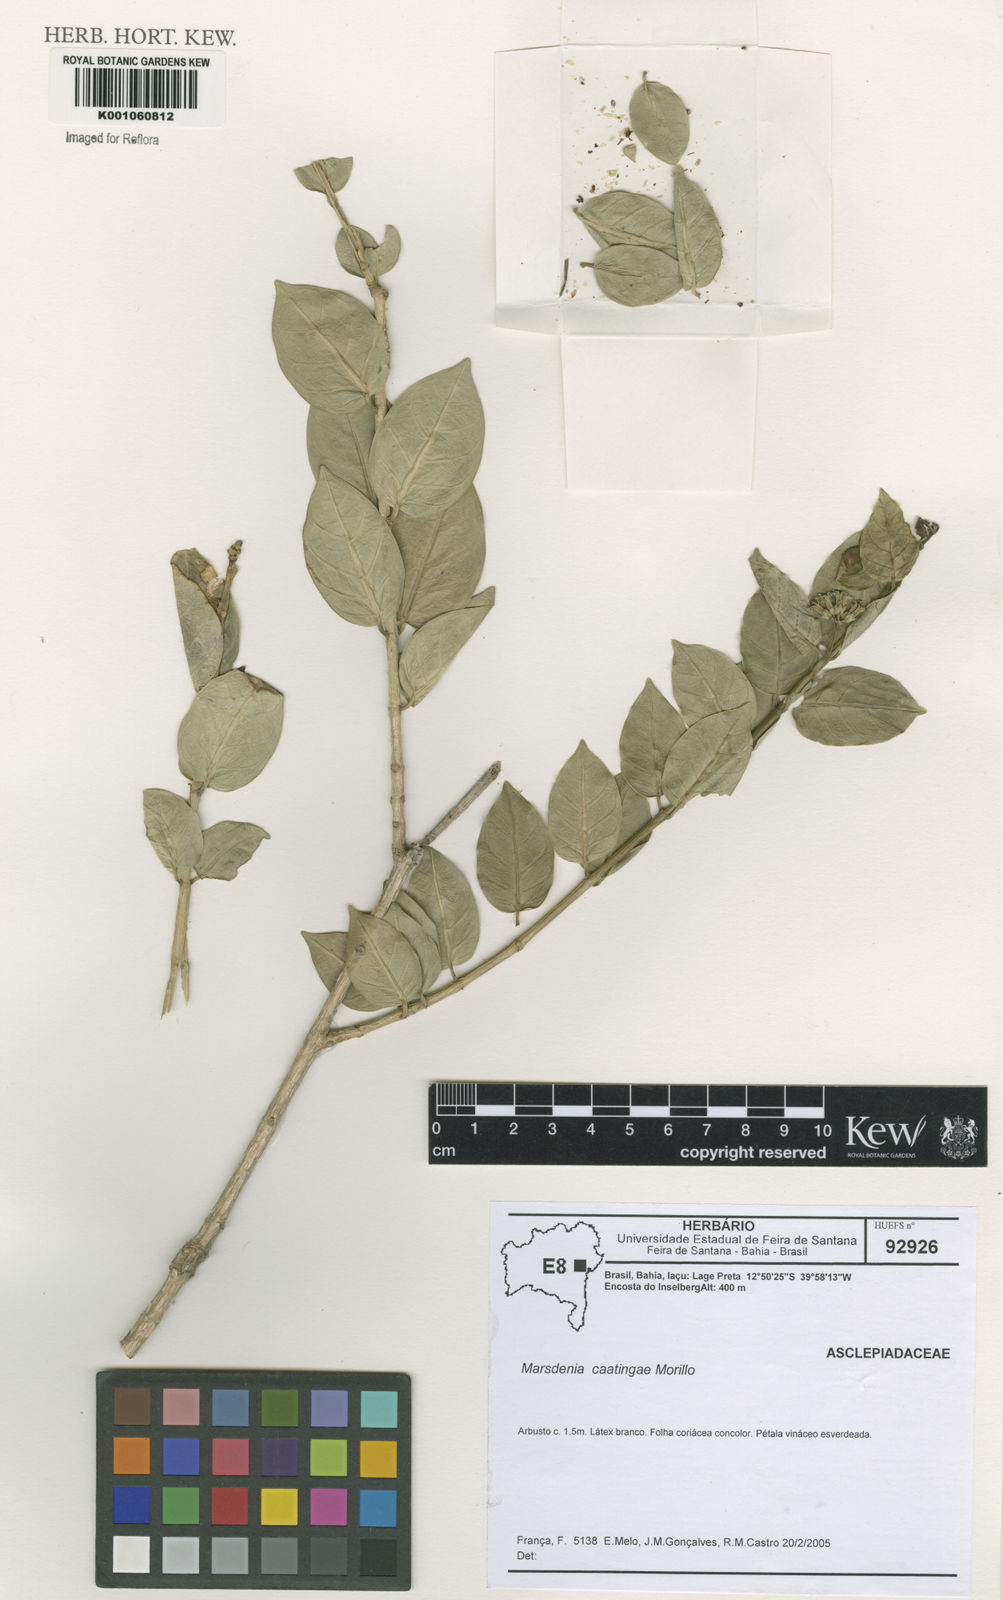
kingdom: Plantae
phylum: Tracheophyta
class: Magnoliopsida
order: Gentianales
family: Apocynaceae
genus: Ruehssia
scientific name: Ruehssia caatingae
